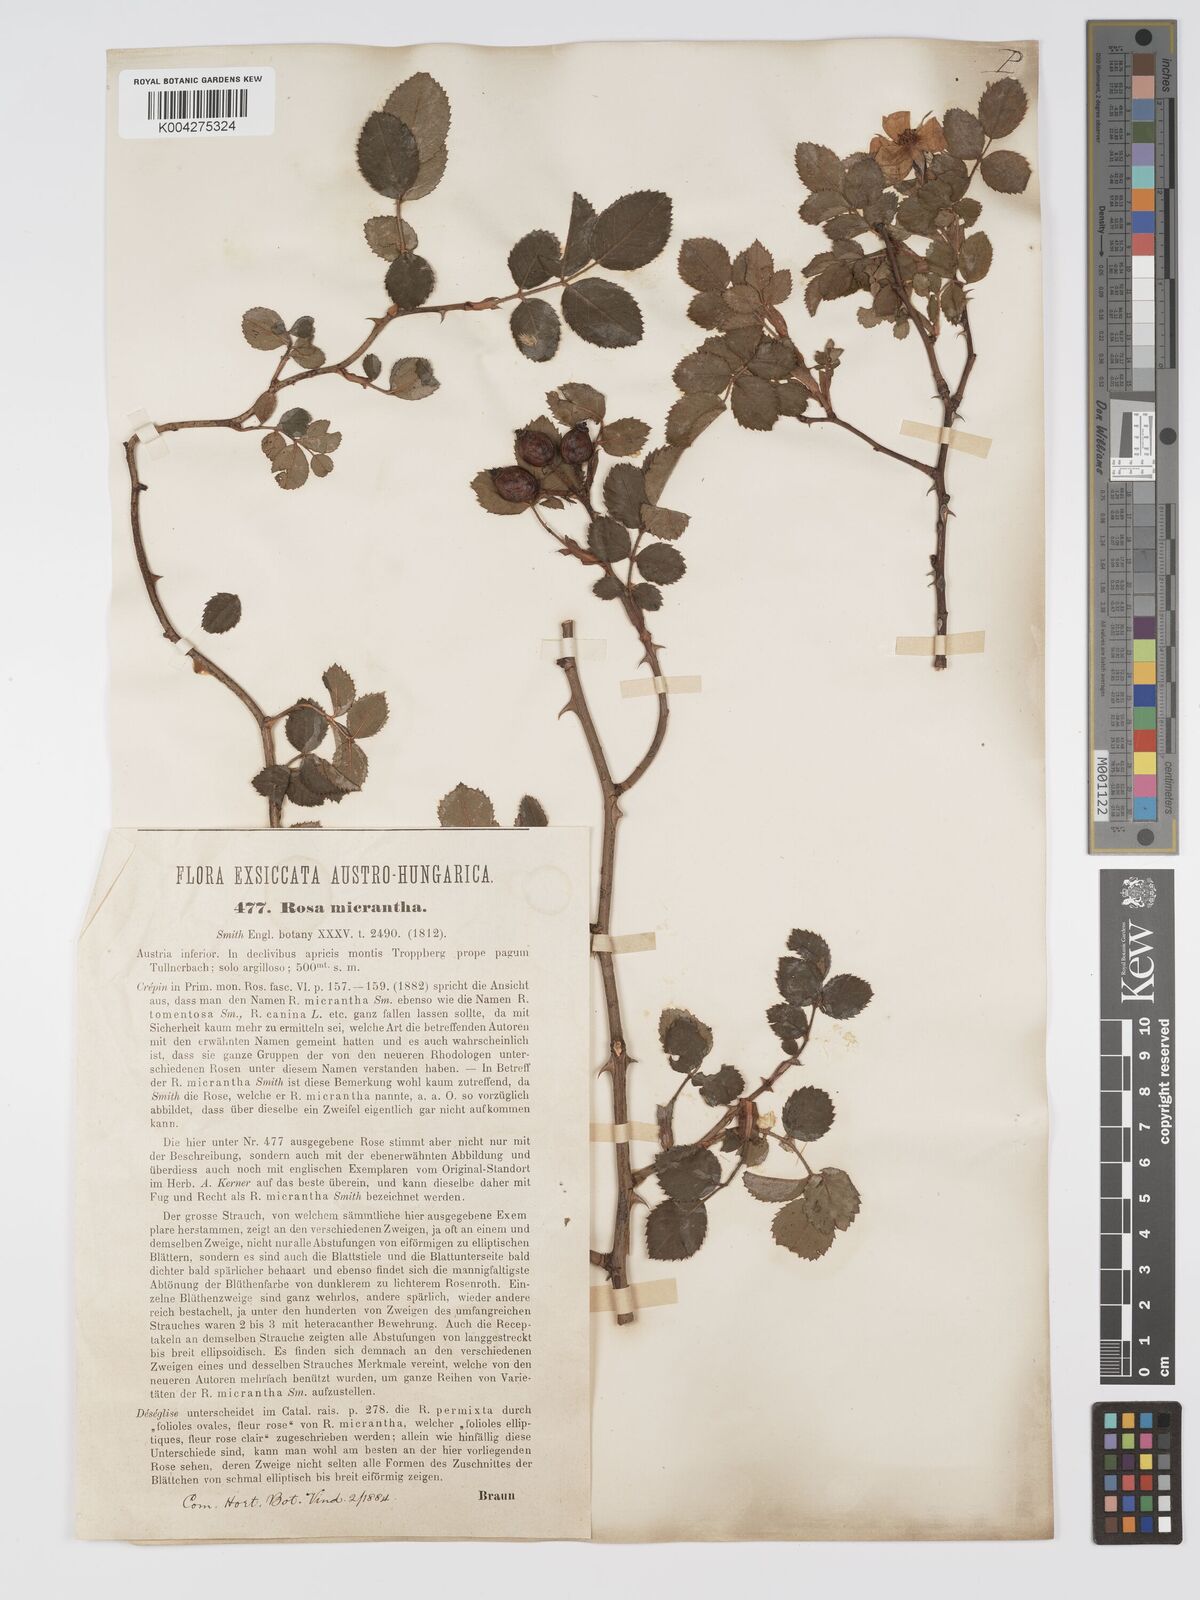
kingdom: Plantae
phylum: Tracheophyta
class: Magnoliopsida
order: Rosales
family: Rosaceae
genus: Rosa
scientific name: Rosa
